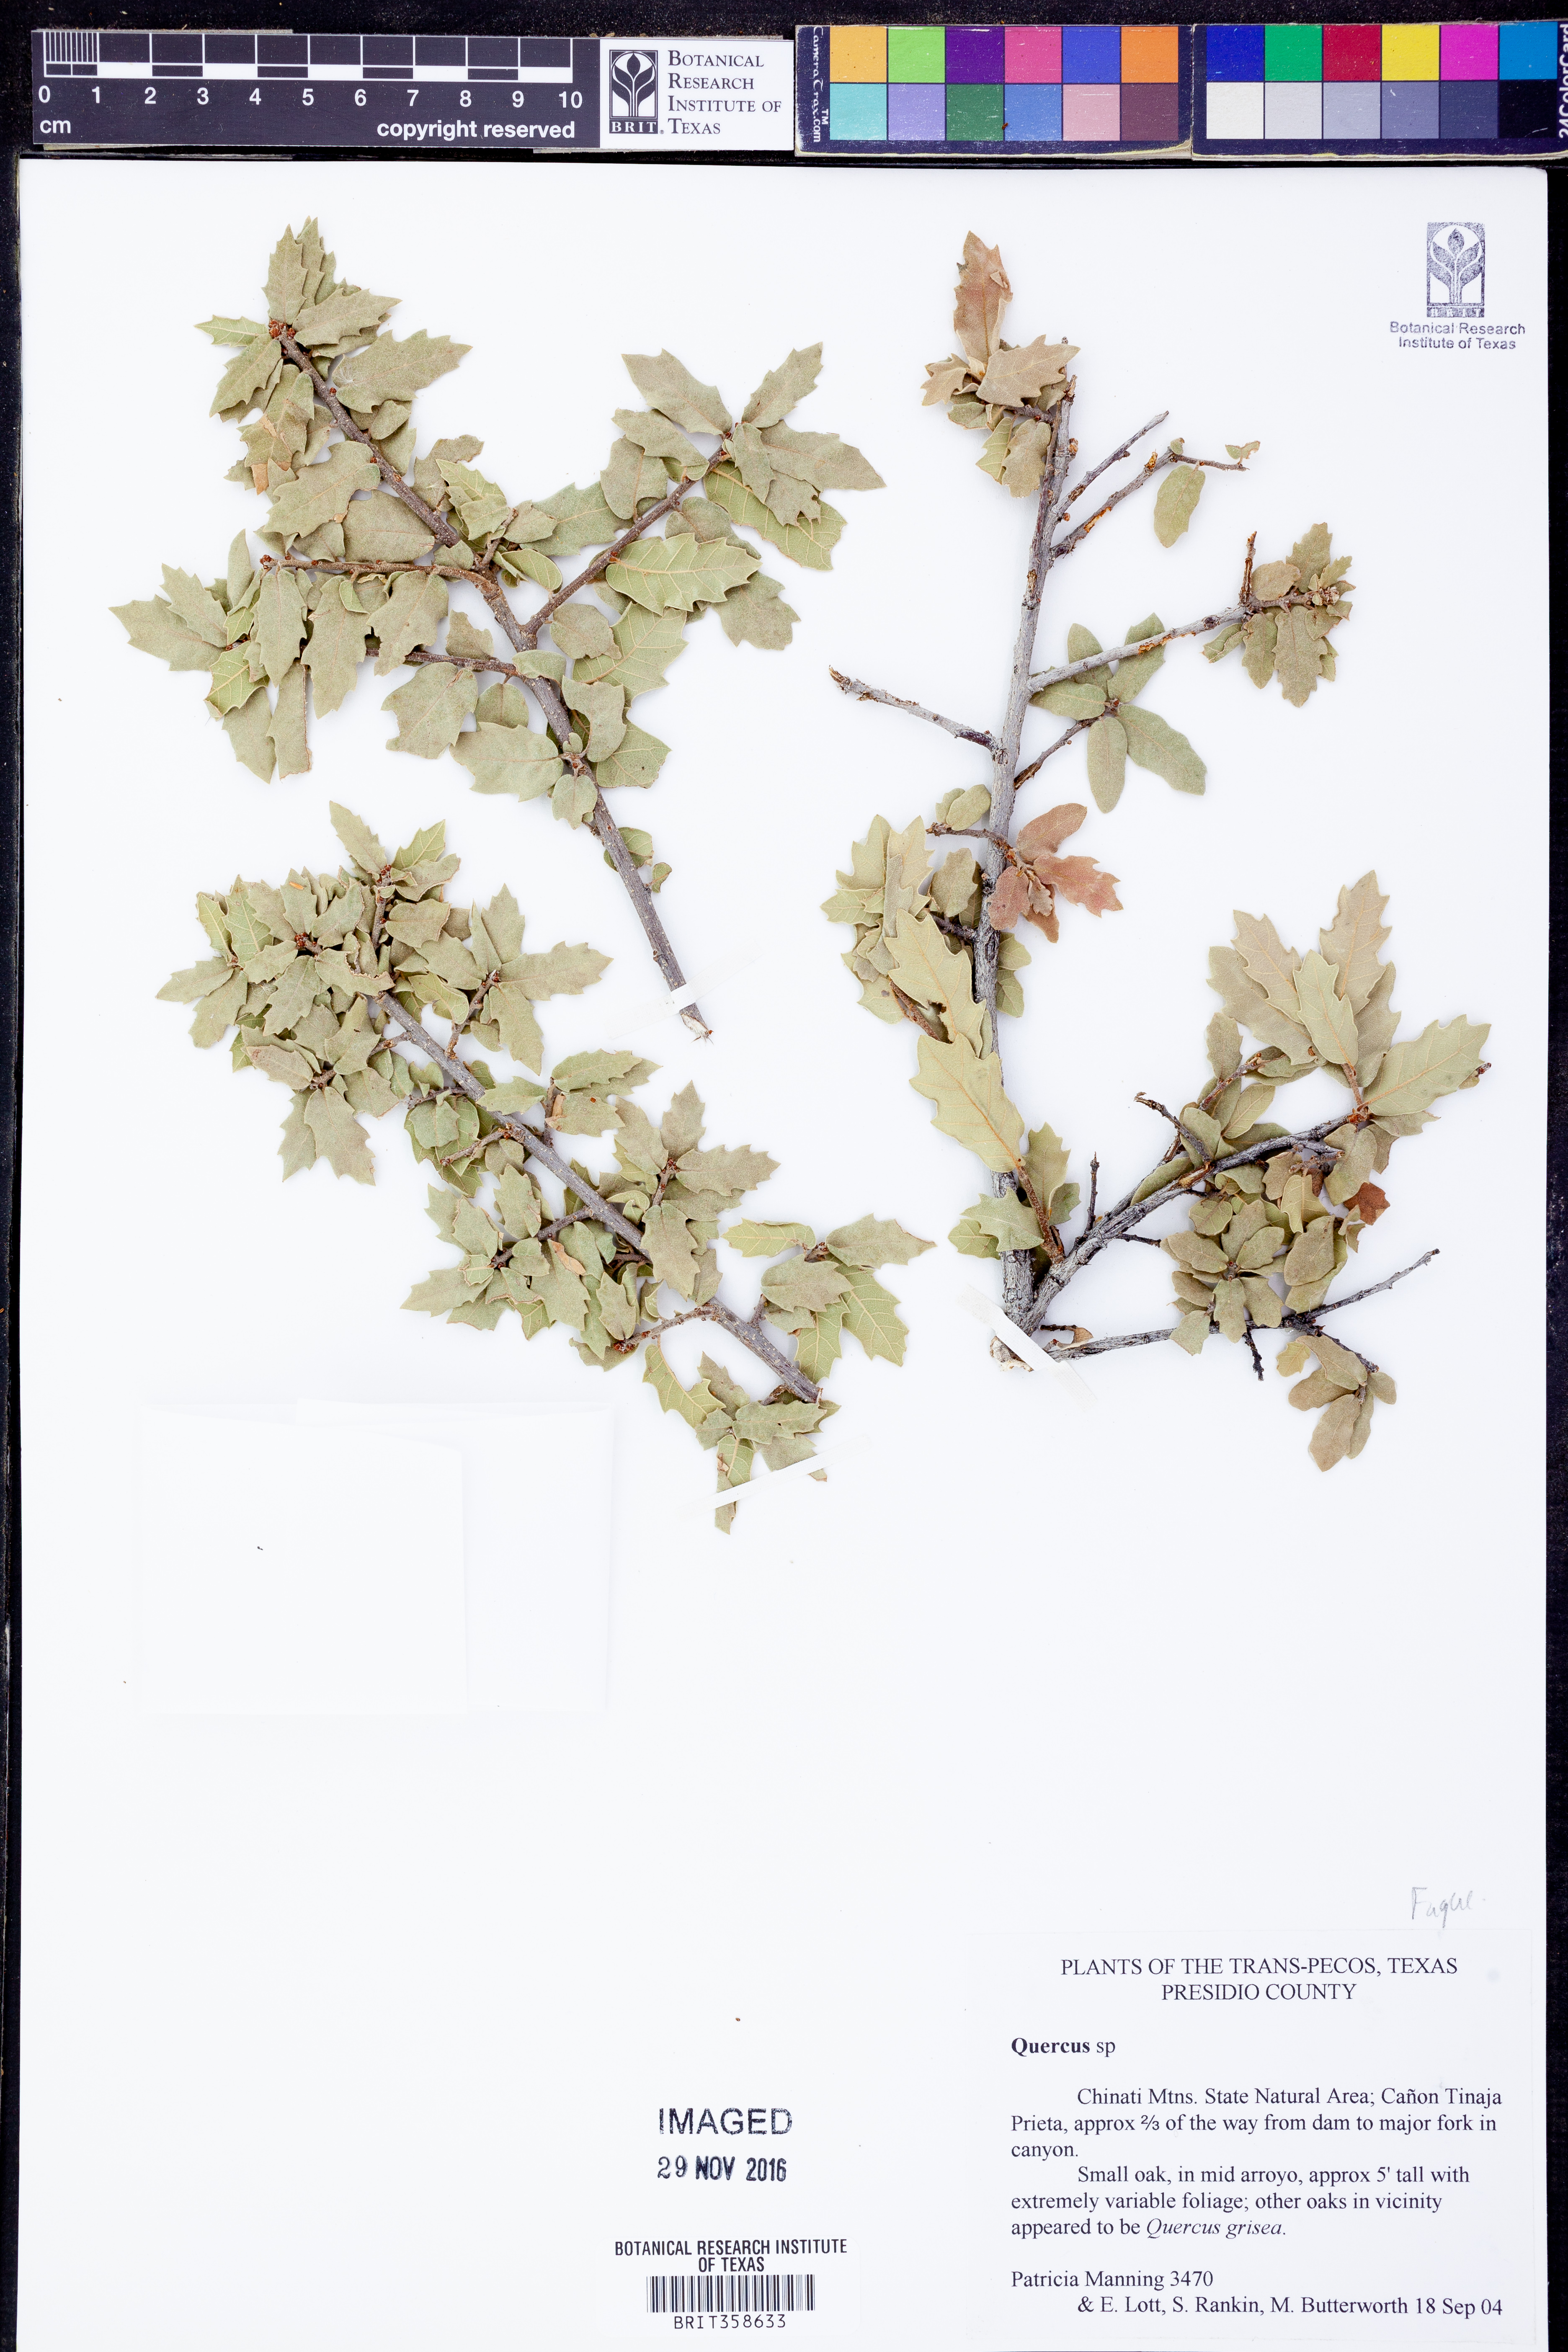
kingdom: Plantae
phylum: Tracheophyta
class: Magnoliopsida
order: Fagales
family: Fagaceae
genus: Quercus
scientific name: Quercus
